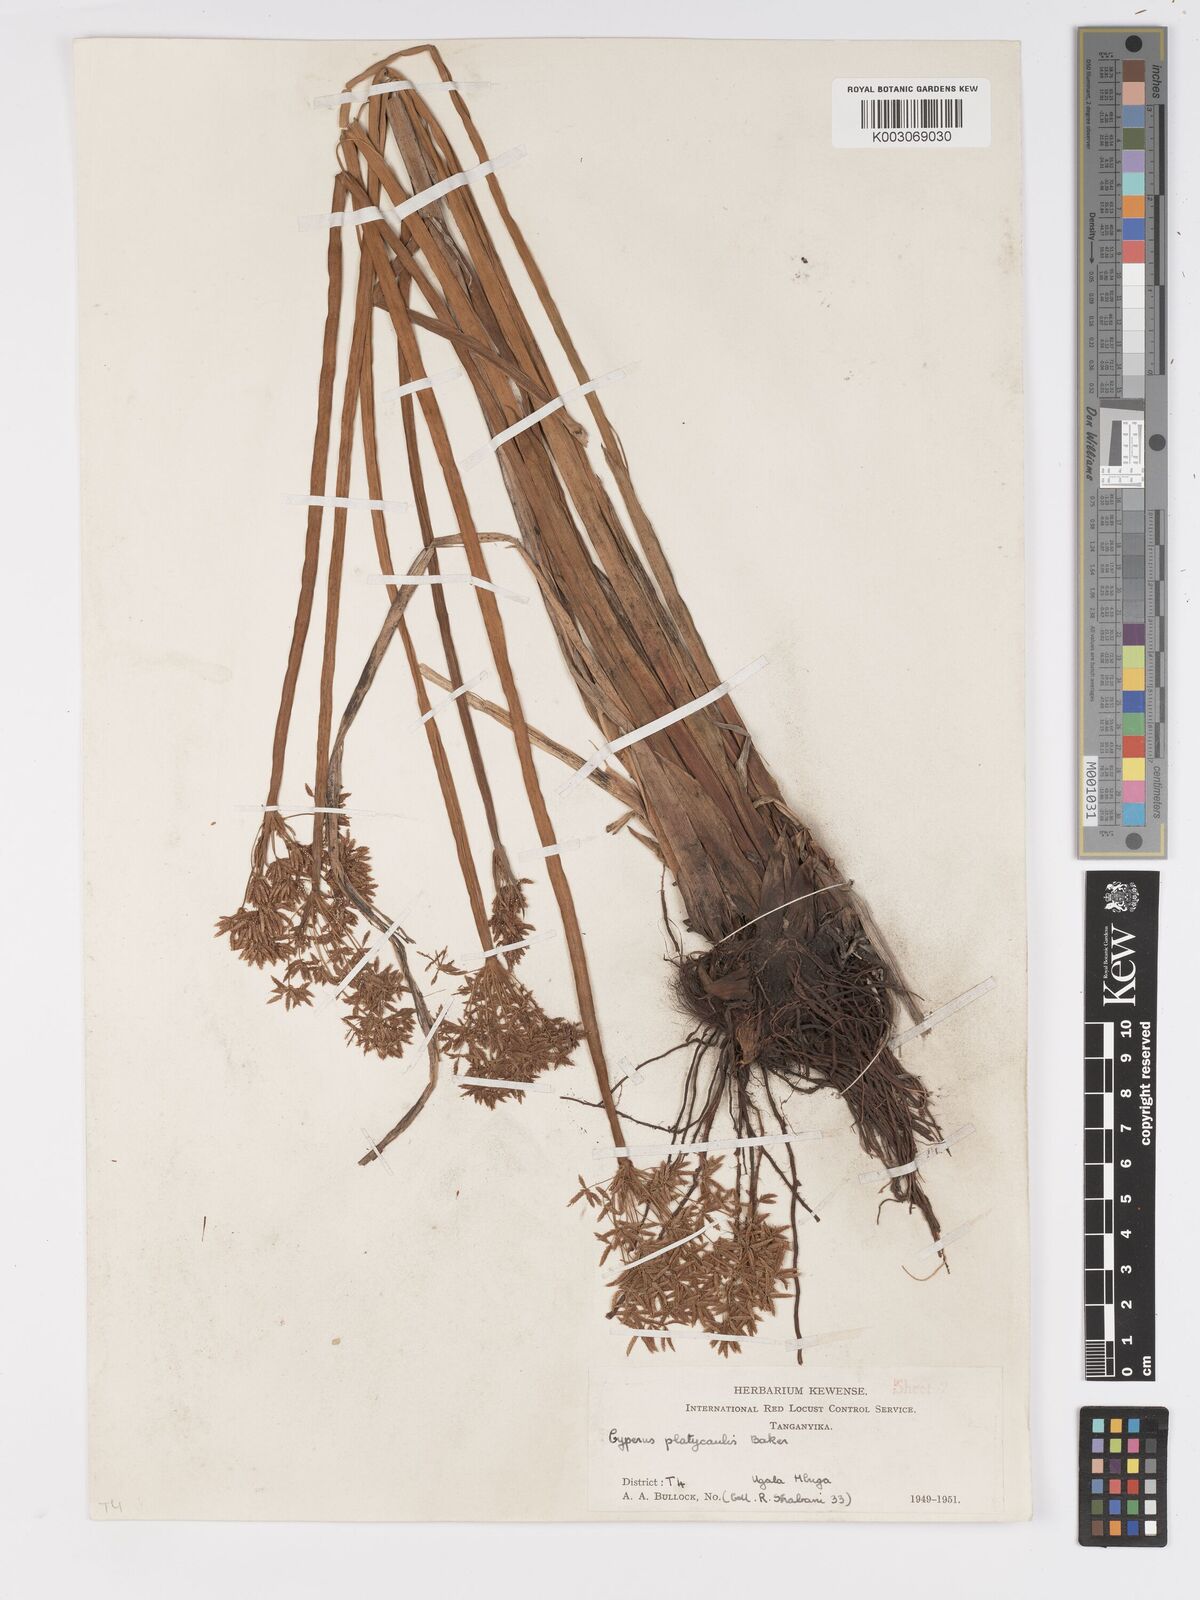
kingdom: Plantae
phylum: Tracheophyta
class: Liliopsida
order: Poales
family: Cyperaceae
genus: Cyperus
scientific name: Cyperus haspan
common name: Haspan flatsedge
